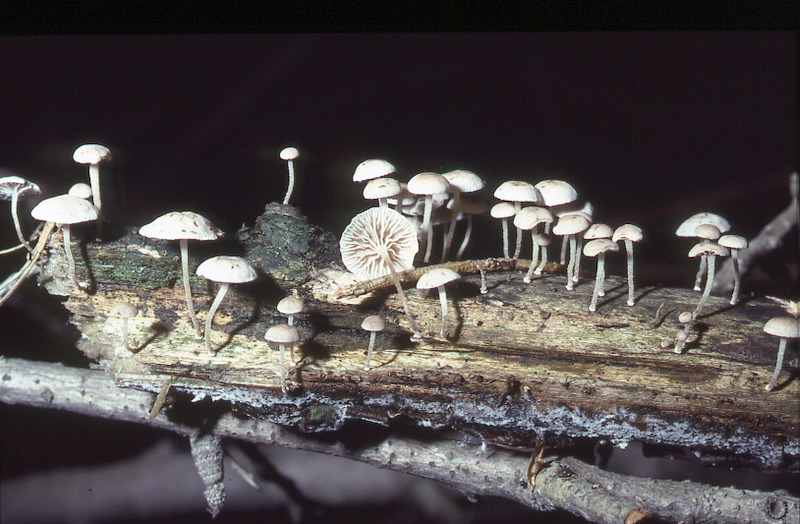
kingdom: Fungi
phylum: Basidiomycota
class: Agaricomycetes
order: Agaricales
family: Omphalotaceae
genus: Collybiopsis
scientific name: Collybiopsis ramealis
